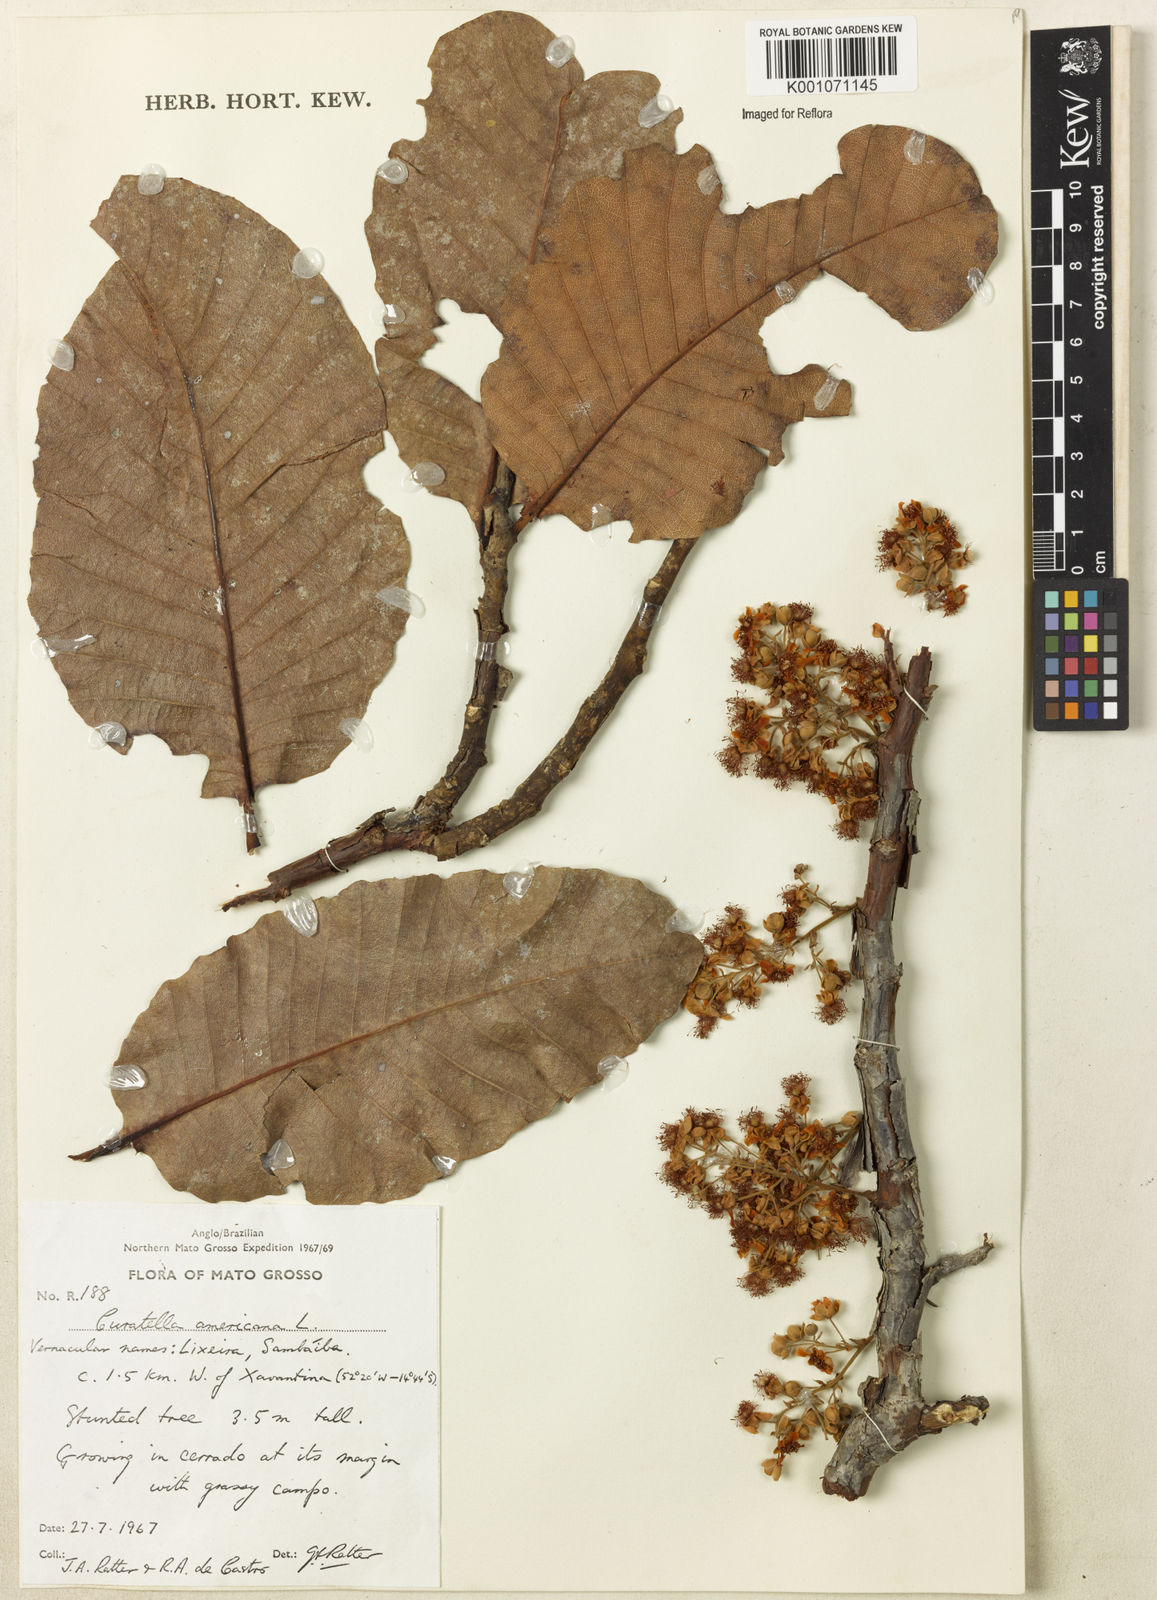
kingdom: Plantae
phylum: Tracheophyta
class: Magnoliopsida
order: Dilleniales
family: Dilleniaceae
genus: Curatella
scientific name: Curatella americana
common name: Sandpaper tree
